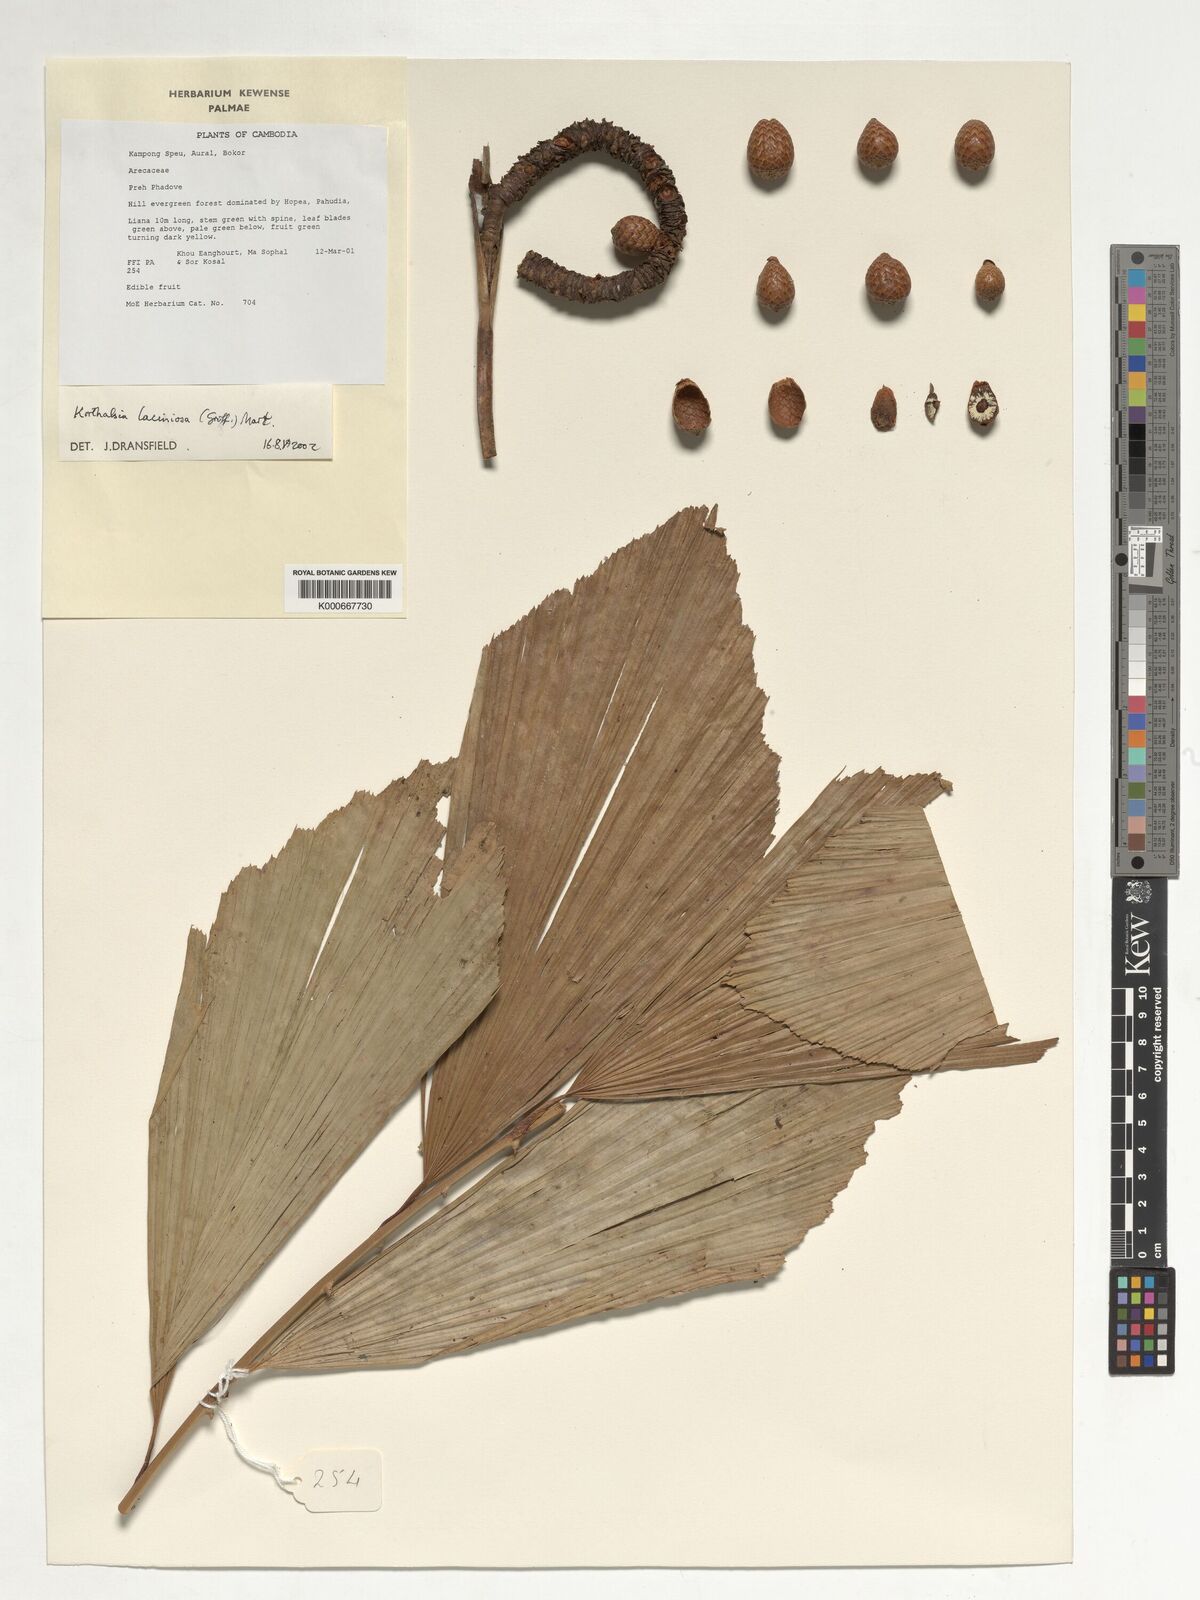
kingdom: Plantae
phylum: Tracheophyta
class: Liliopsida
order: Arecales
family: Arecaceae
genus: Korthalsia
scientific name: Korthalsia laciniosa
